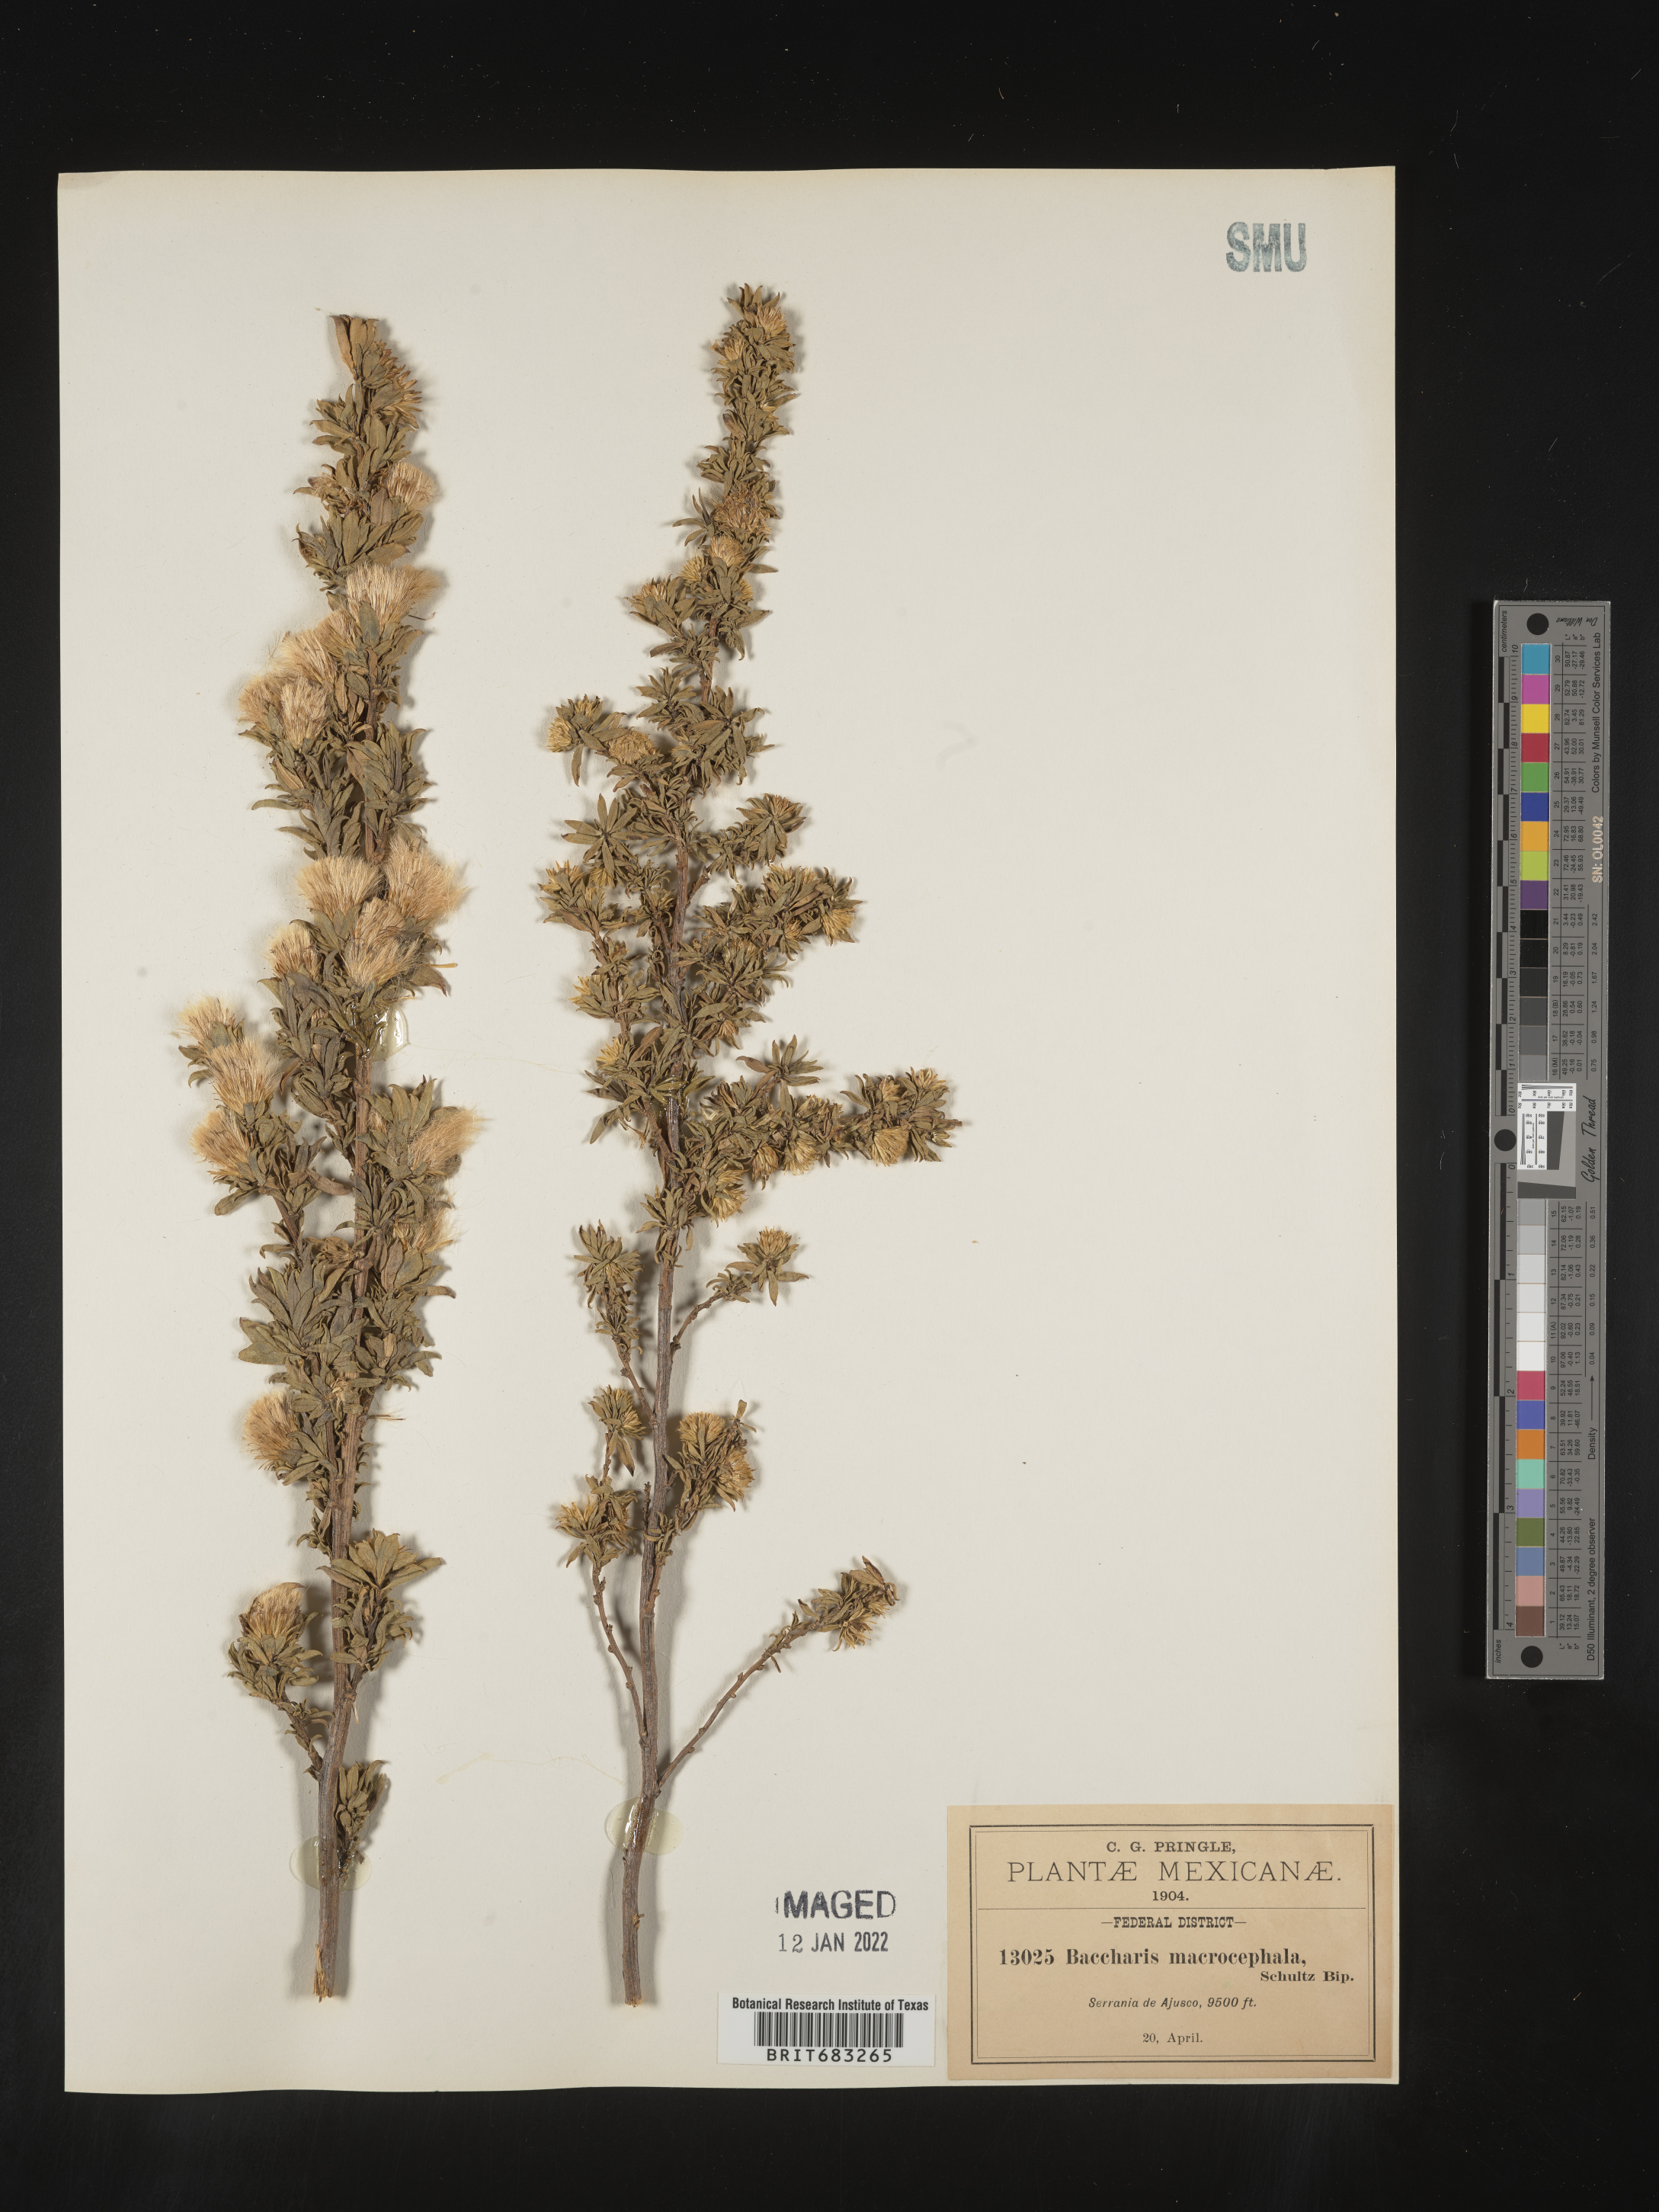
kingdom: Plantae
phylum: Tracheophyta
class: Magnoliopsida
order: Asterales
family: Asteraceae
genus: Baccharis
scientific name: Baccharis macrocephala
